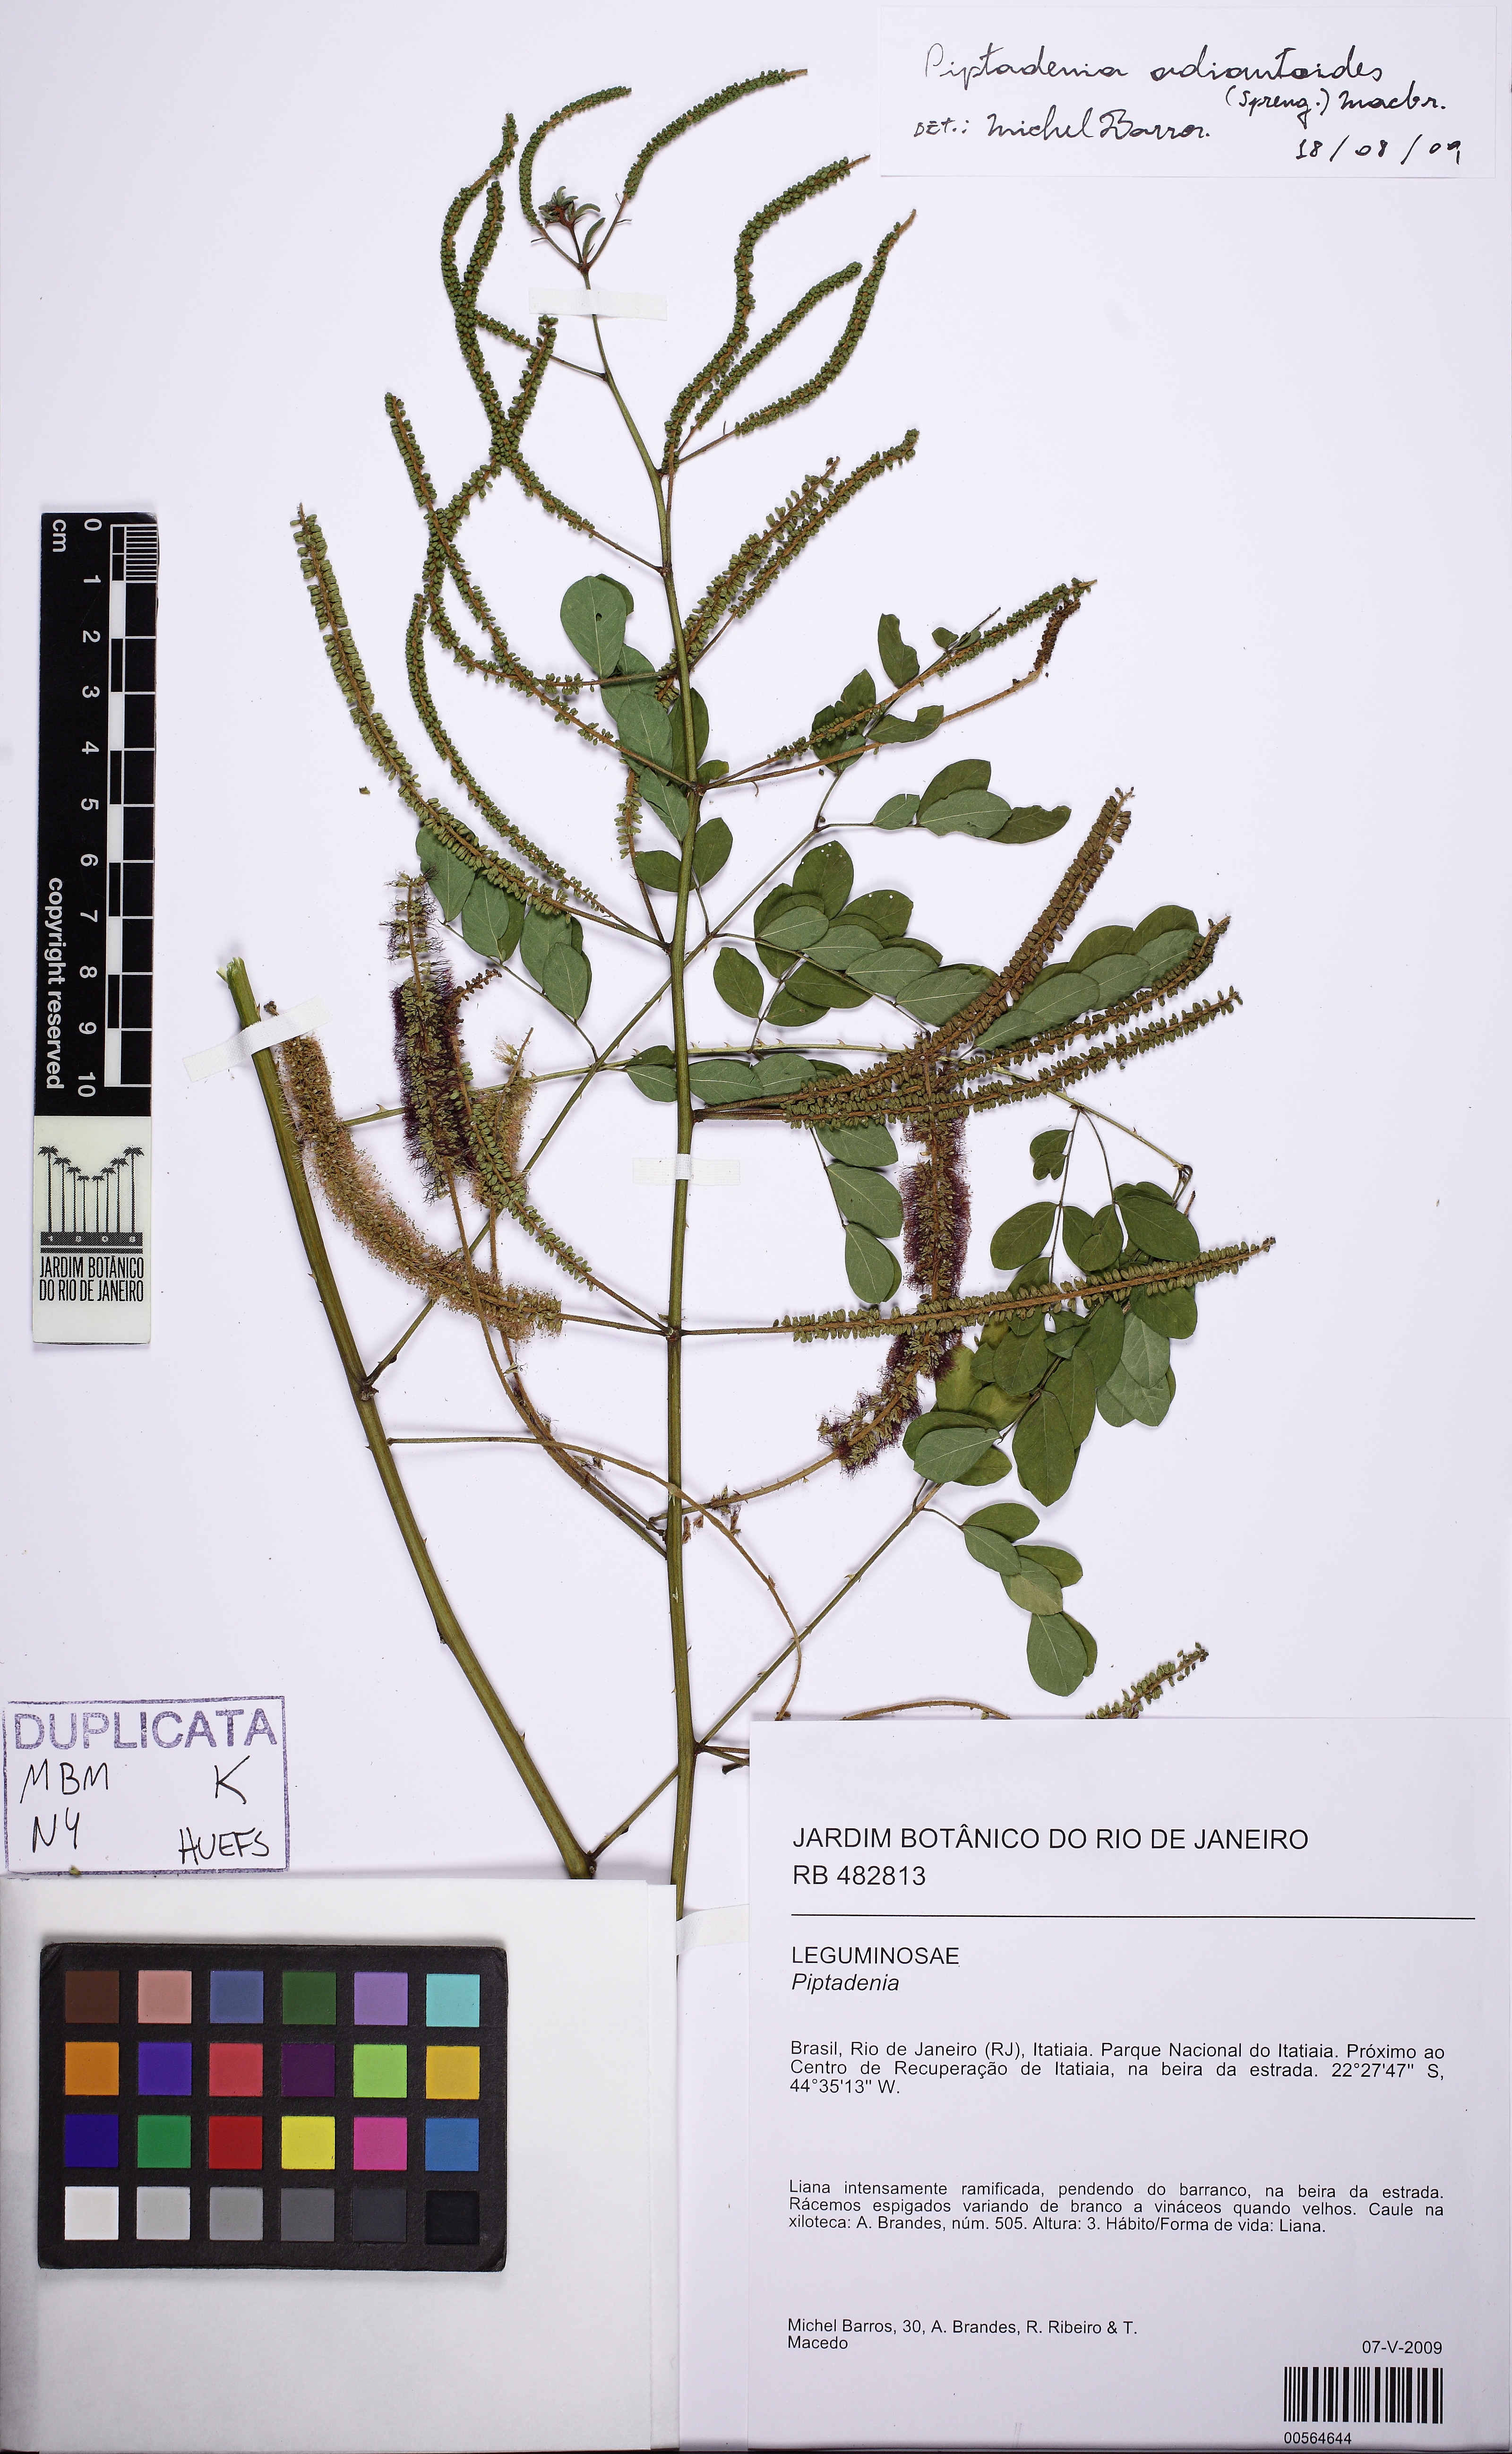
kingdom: Plantae
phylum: Tracheophyta
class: Magnoliopsida
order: Fabales
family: Fabaceae
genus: Piptadenia
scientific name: Piptadenia adiantoides
